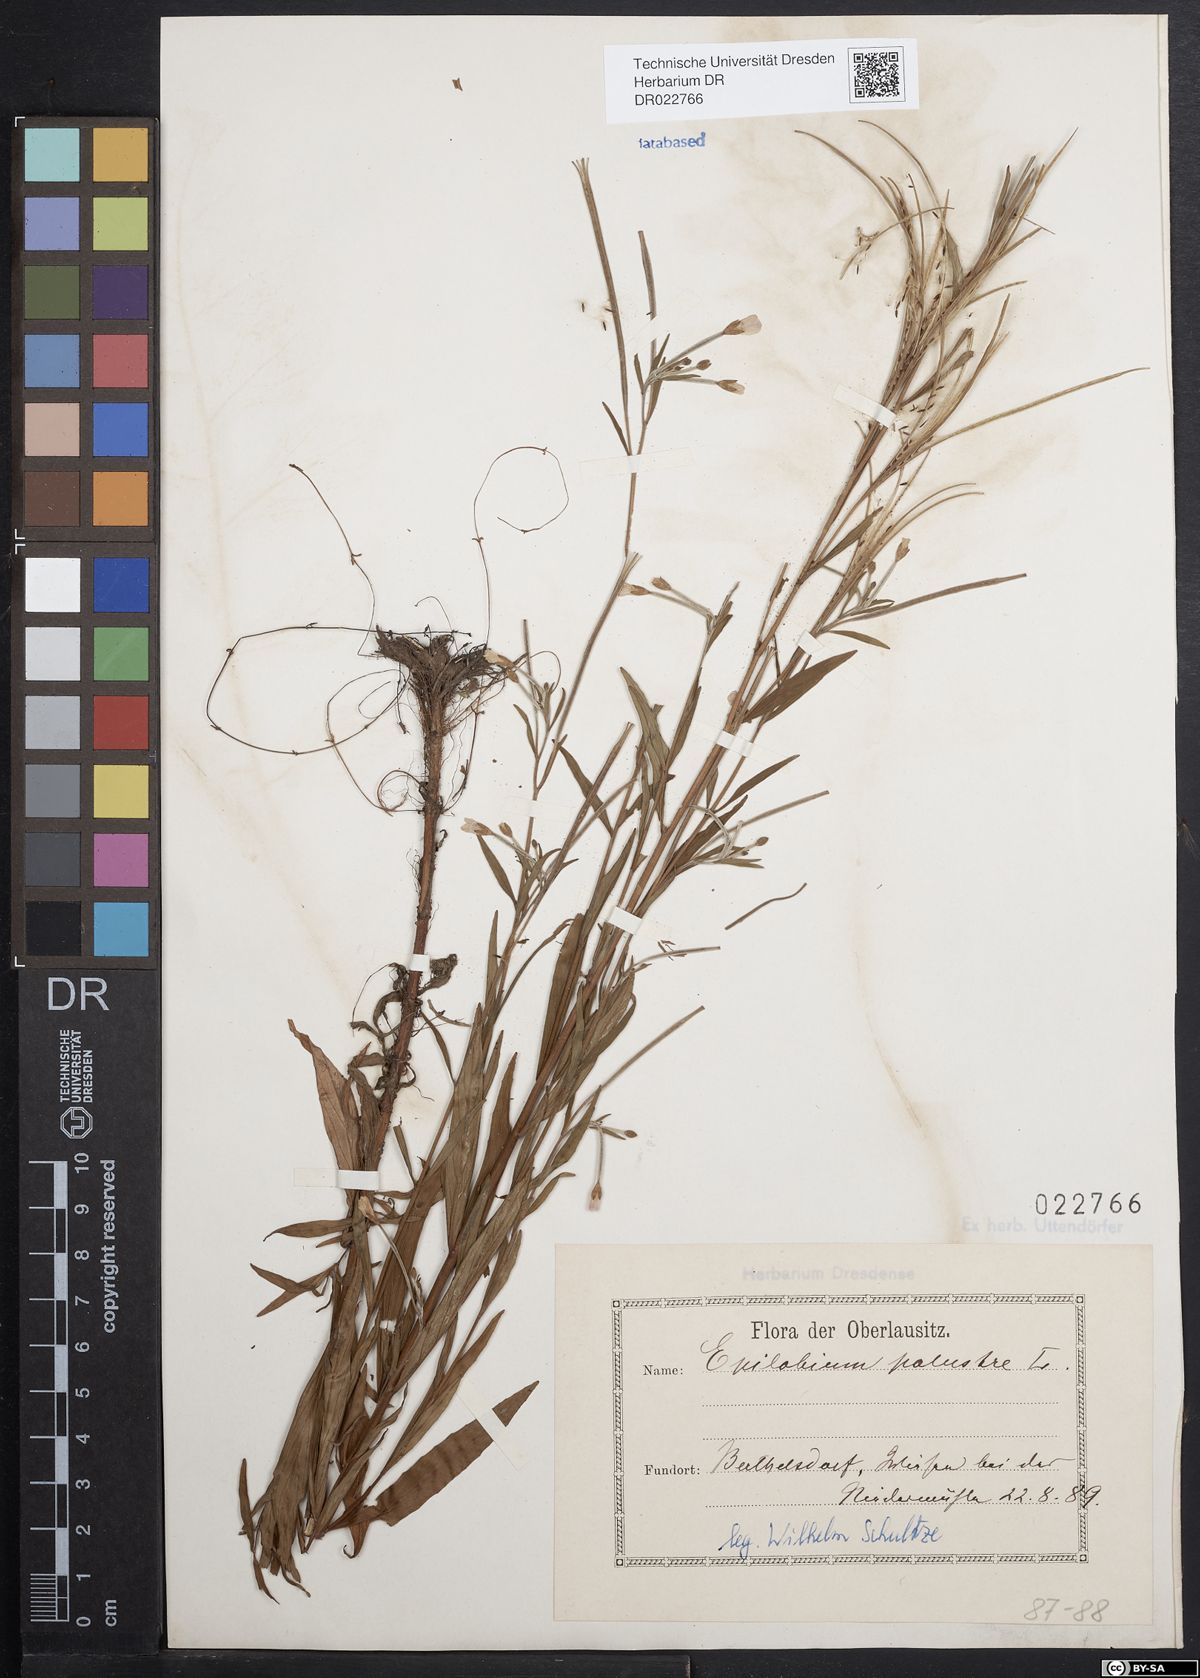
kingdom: Plantae
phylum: Tracheophyta
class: Magnoliopsida
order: Myrtales
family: Onagraceae
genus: Epilobium
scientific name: Epilobium palustre
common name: Marsh willowherb
